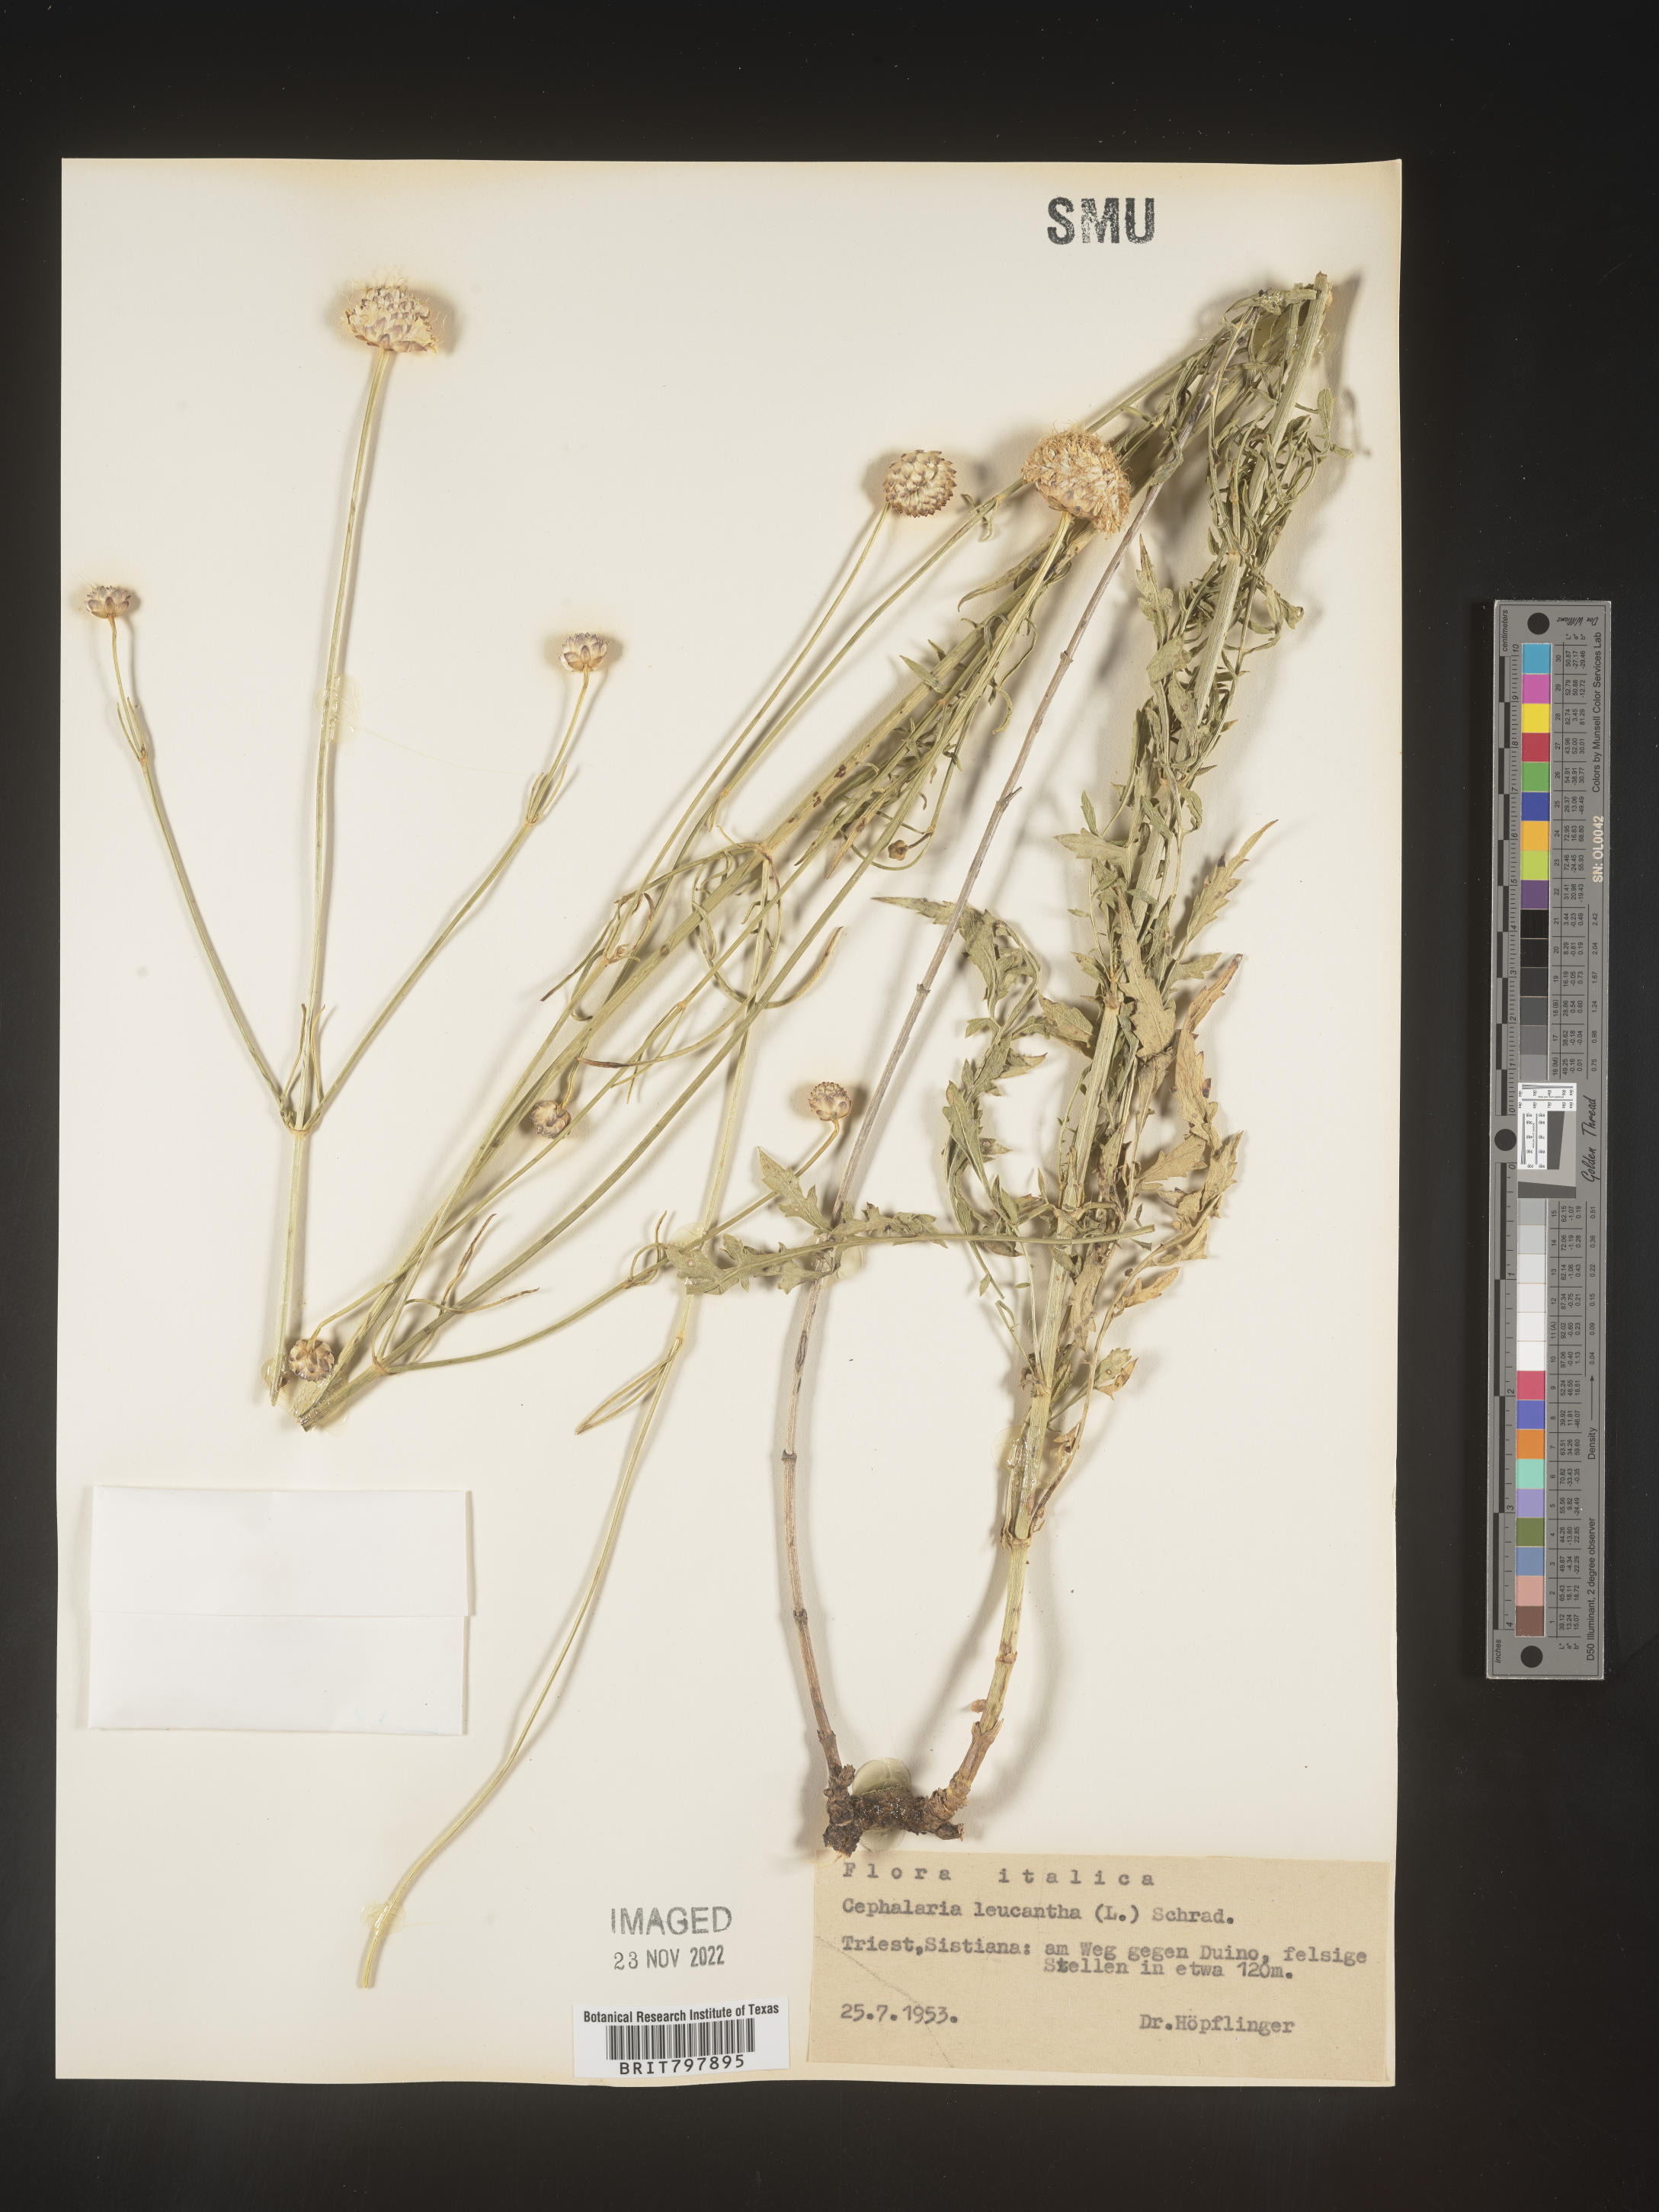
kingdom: Plantae
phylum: Tracheophyta
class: Magnoliopsida
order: Dipsacales
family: Caprifoliaceae
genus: Cephalaria
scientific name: Cephalaria
